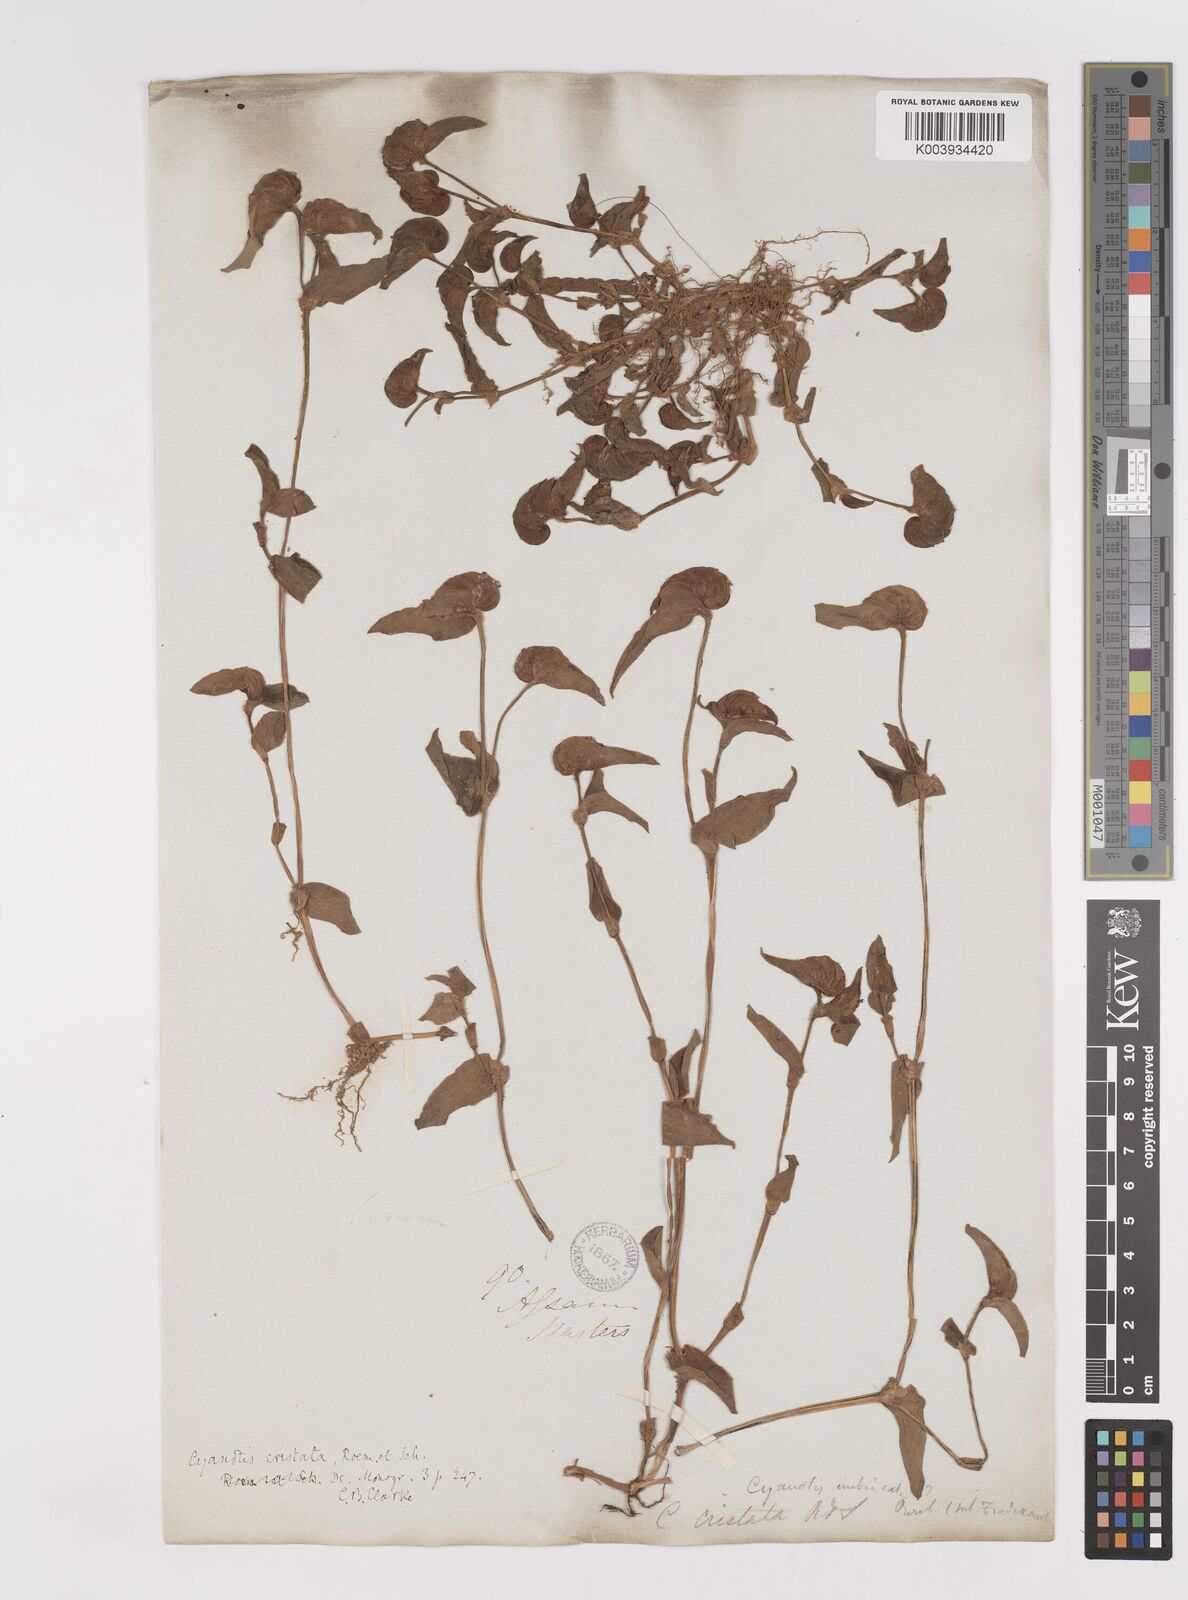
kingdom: Plantae
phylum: Tracheophyta
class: Liliopsida
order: Commelinales
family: Commelinaceae
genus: Cyanotis
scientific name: Cyanotis cristata
